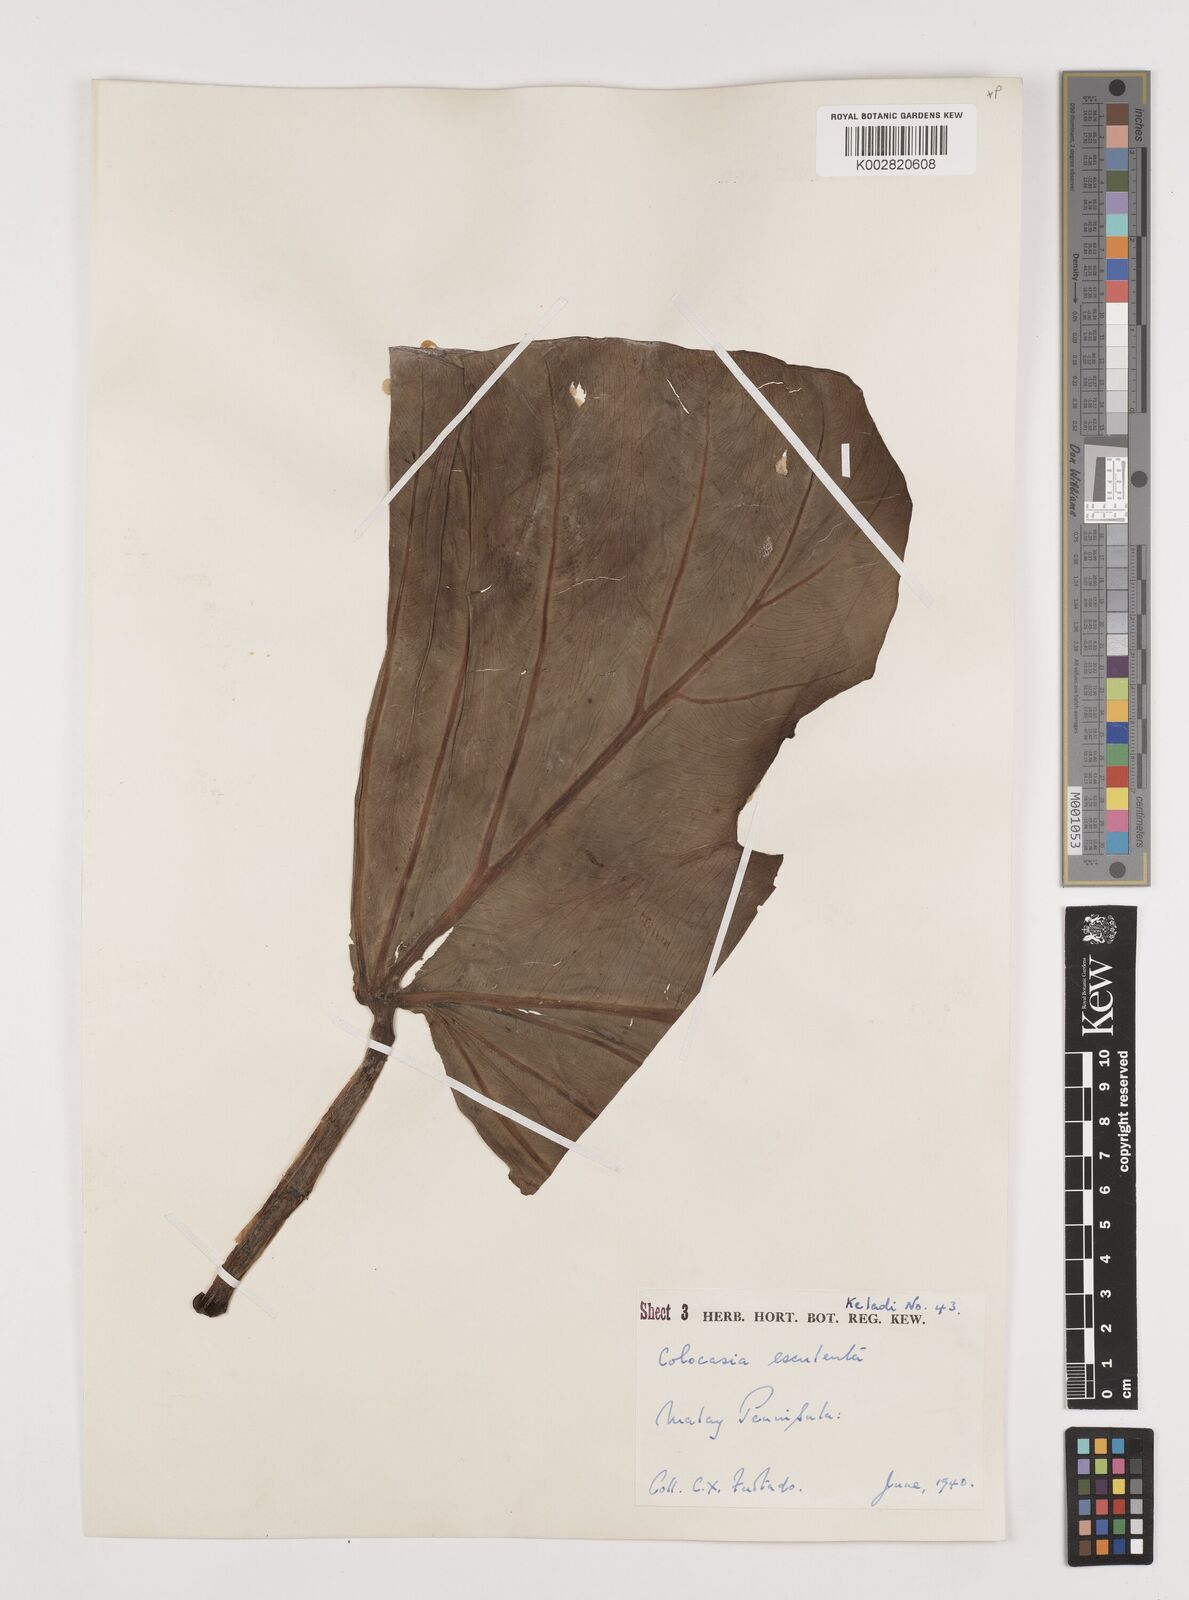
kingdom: Plantae
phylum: Tracheophyta
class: Liliopsida
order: Alismatales
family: Araceae
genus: Colocasia
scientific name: Colocasia esculenta
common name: Taro
